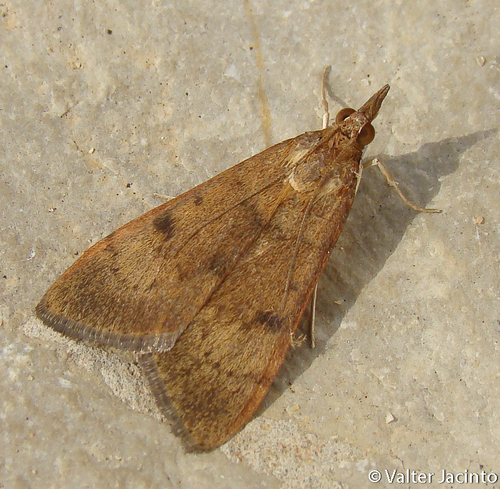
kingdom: Animalia
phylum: Arthropoda
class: Insecta
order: Lepidoptera
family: Crambidae
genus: Uresiphita
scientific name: Uresiphita
